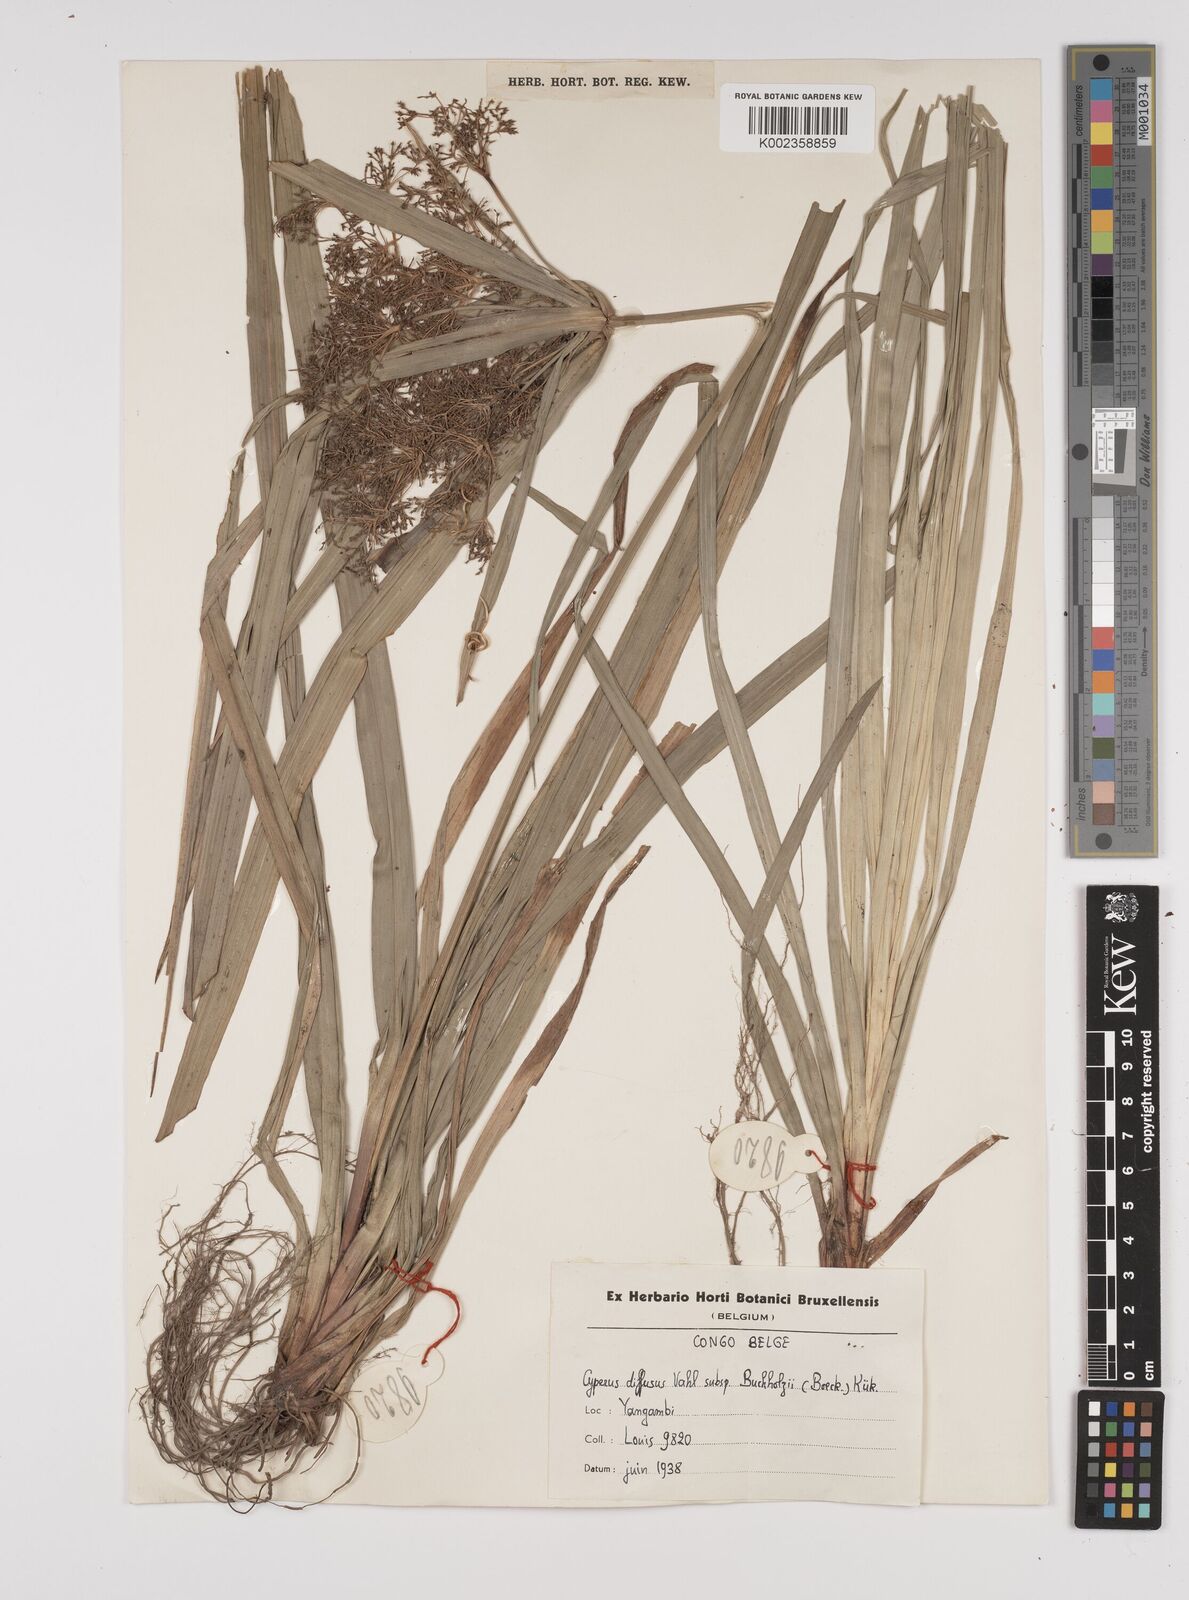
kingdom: Plantae
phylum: Tracheophyta
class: Liliopsida
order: Poales
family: Cyperaceae
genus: Cyperus
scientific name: Cyperus glaucophyllus
